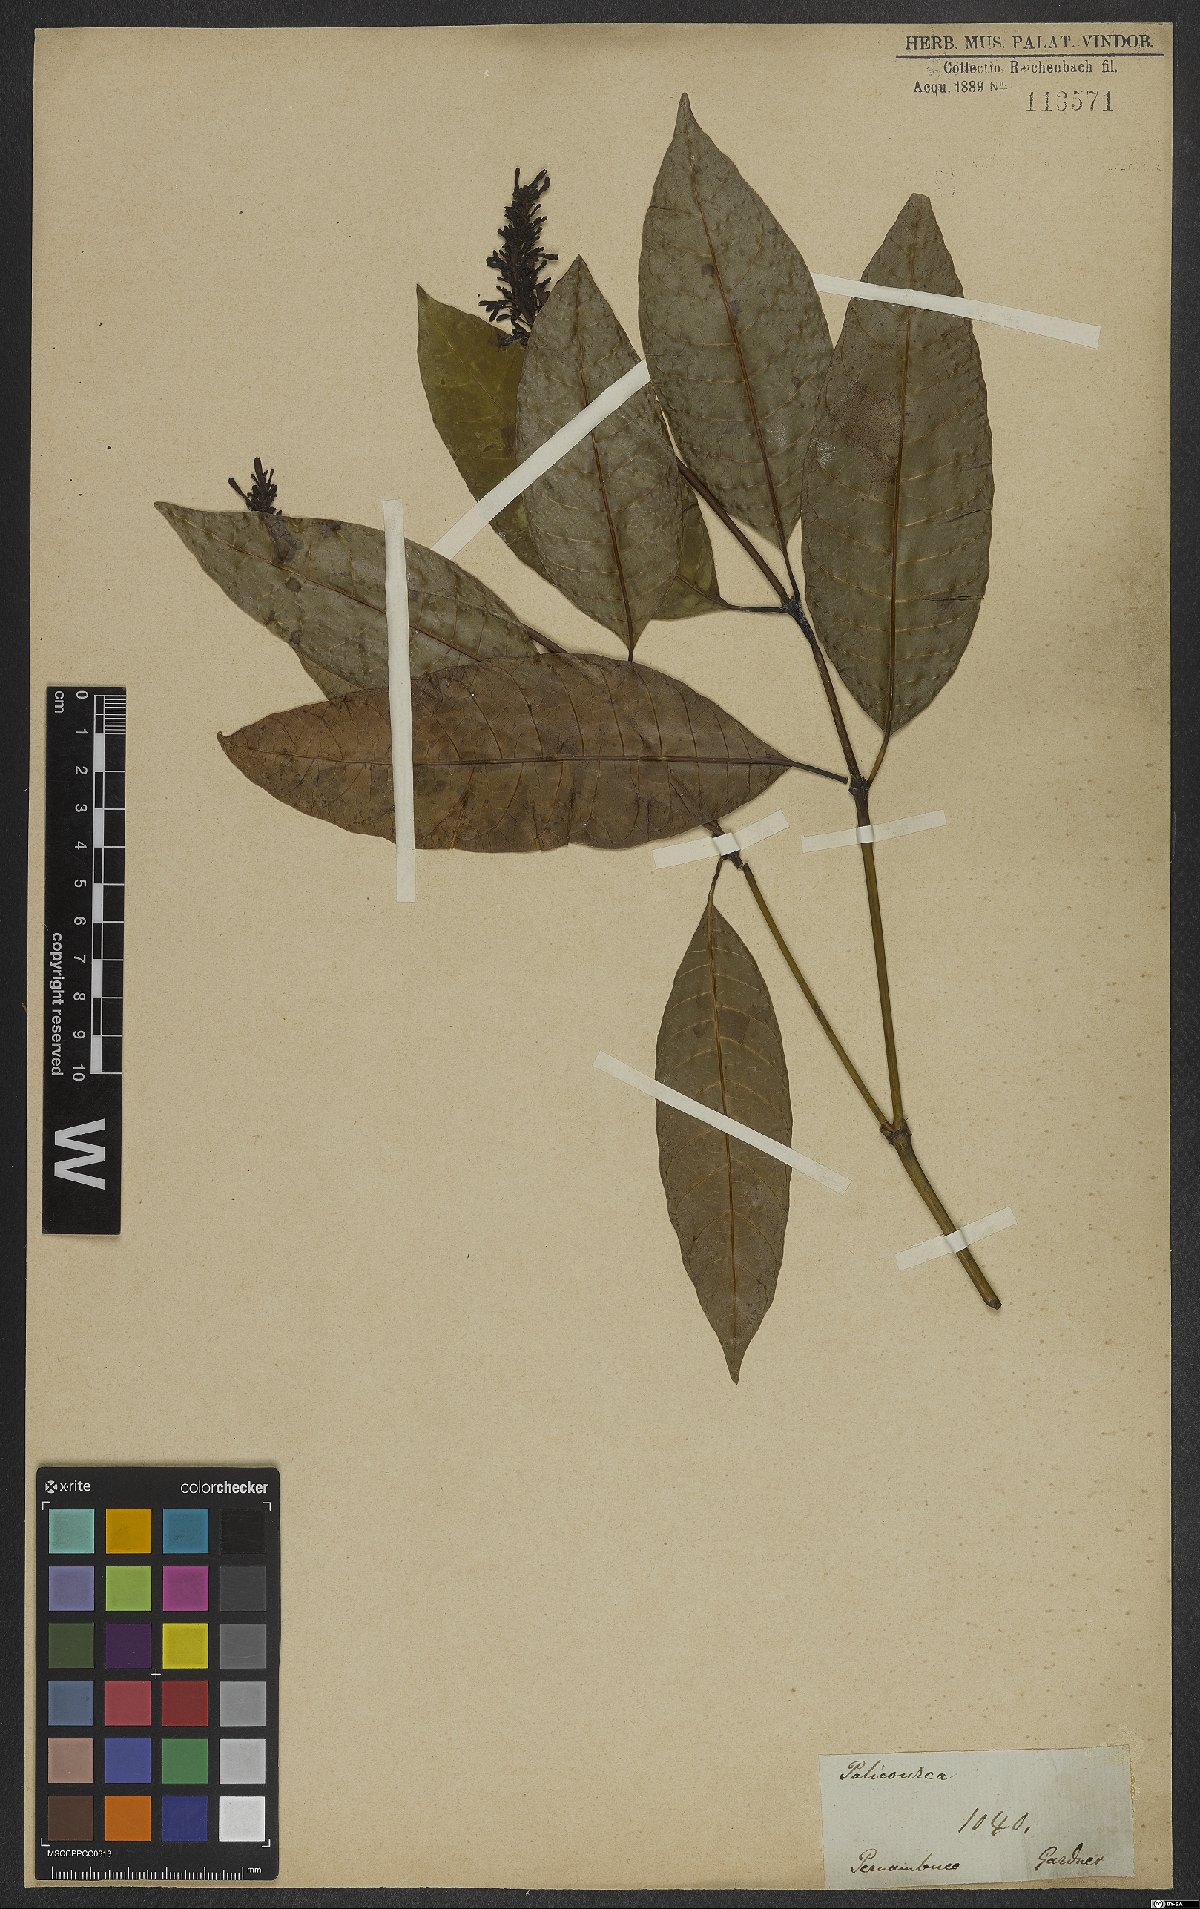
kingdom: Plantae
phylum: Tracheophyta
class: Magnoliopsida
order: Gentianales
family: Rubiaceae
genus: Palicourea
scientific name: Palicourea blanchetiana
